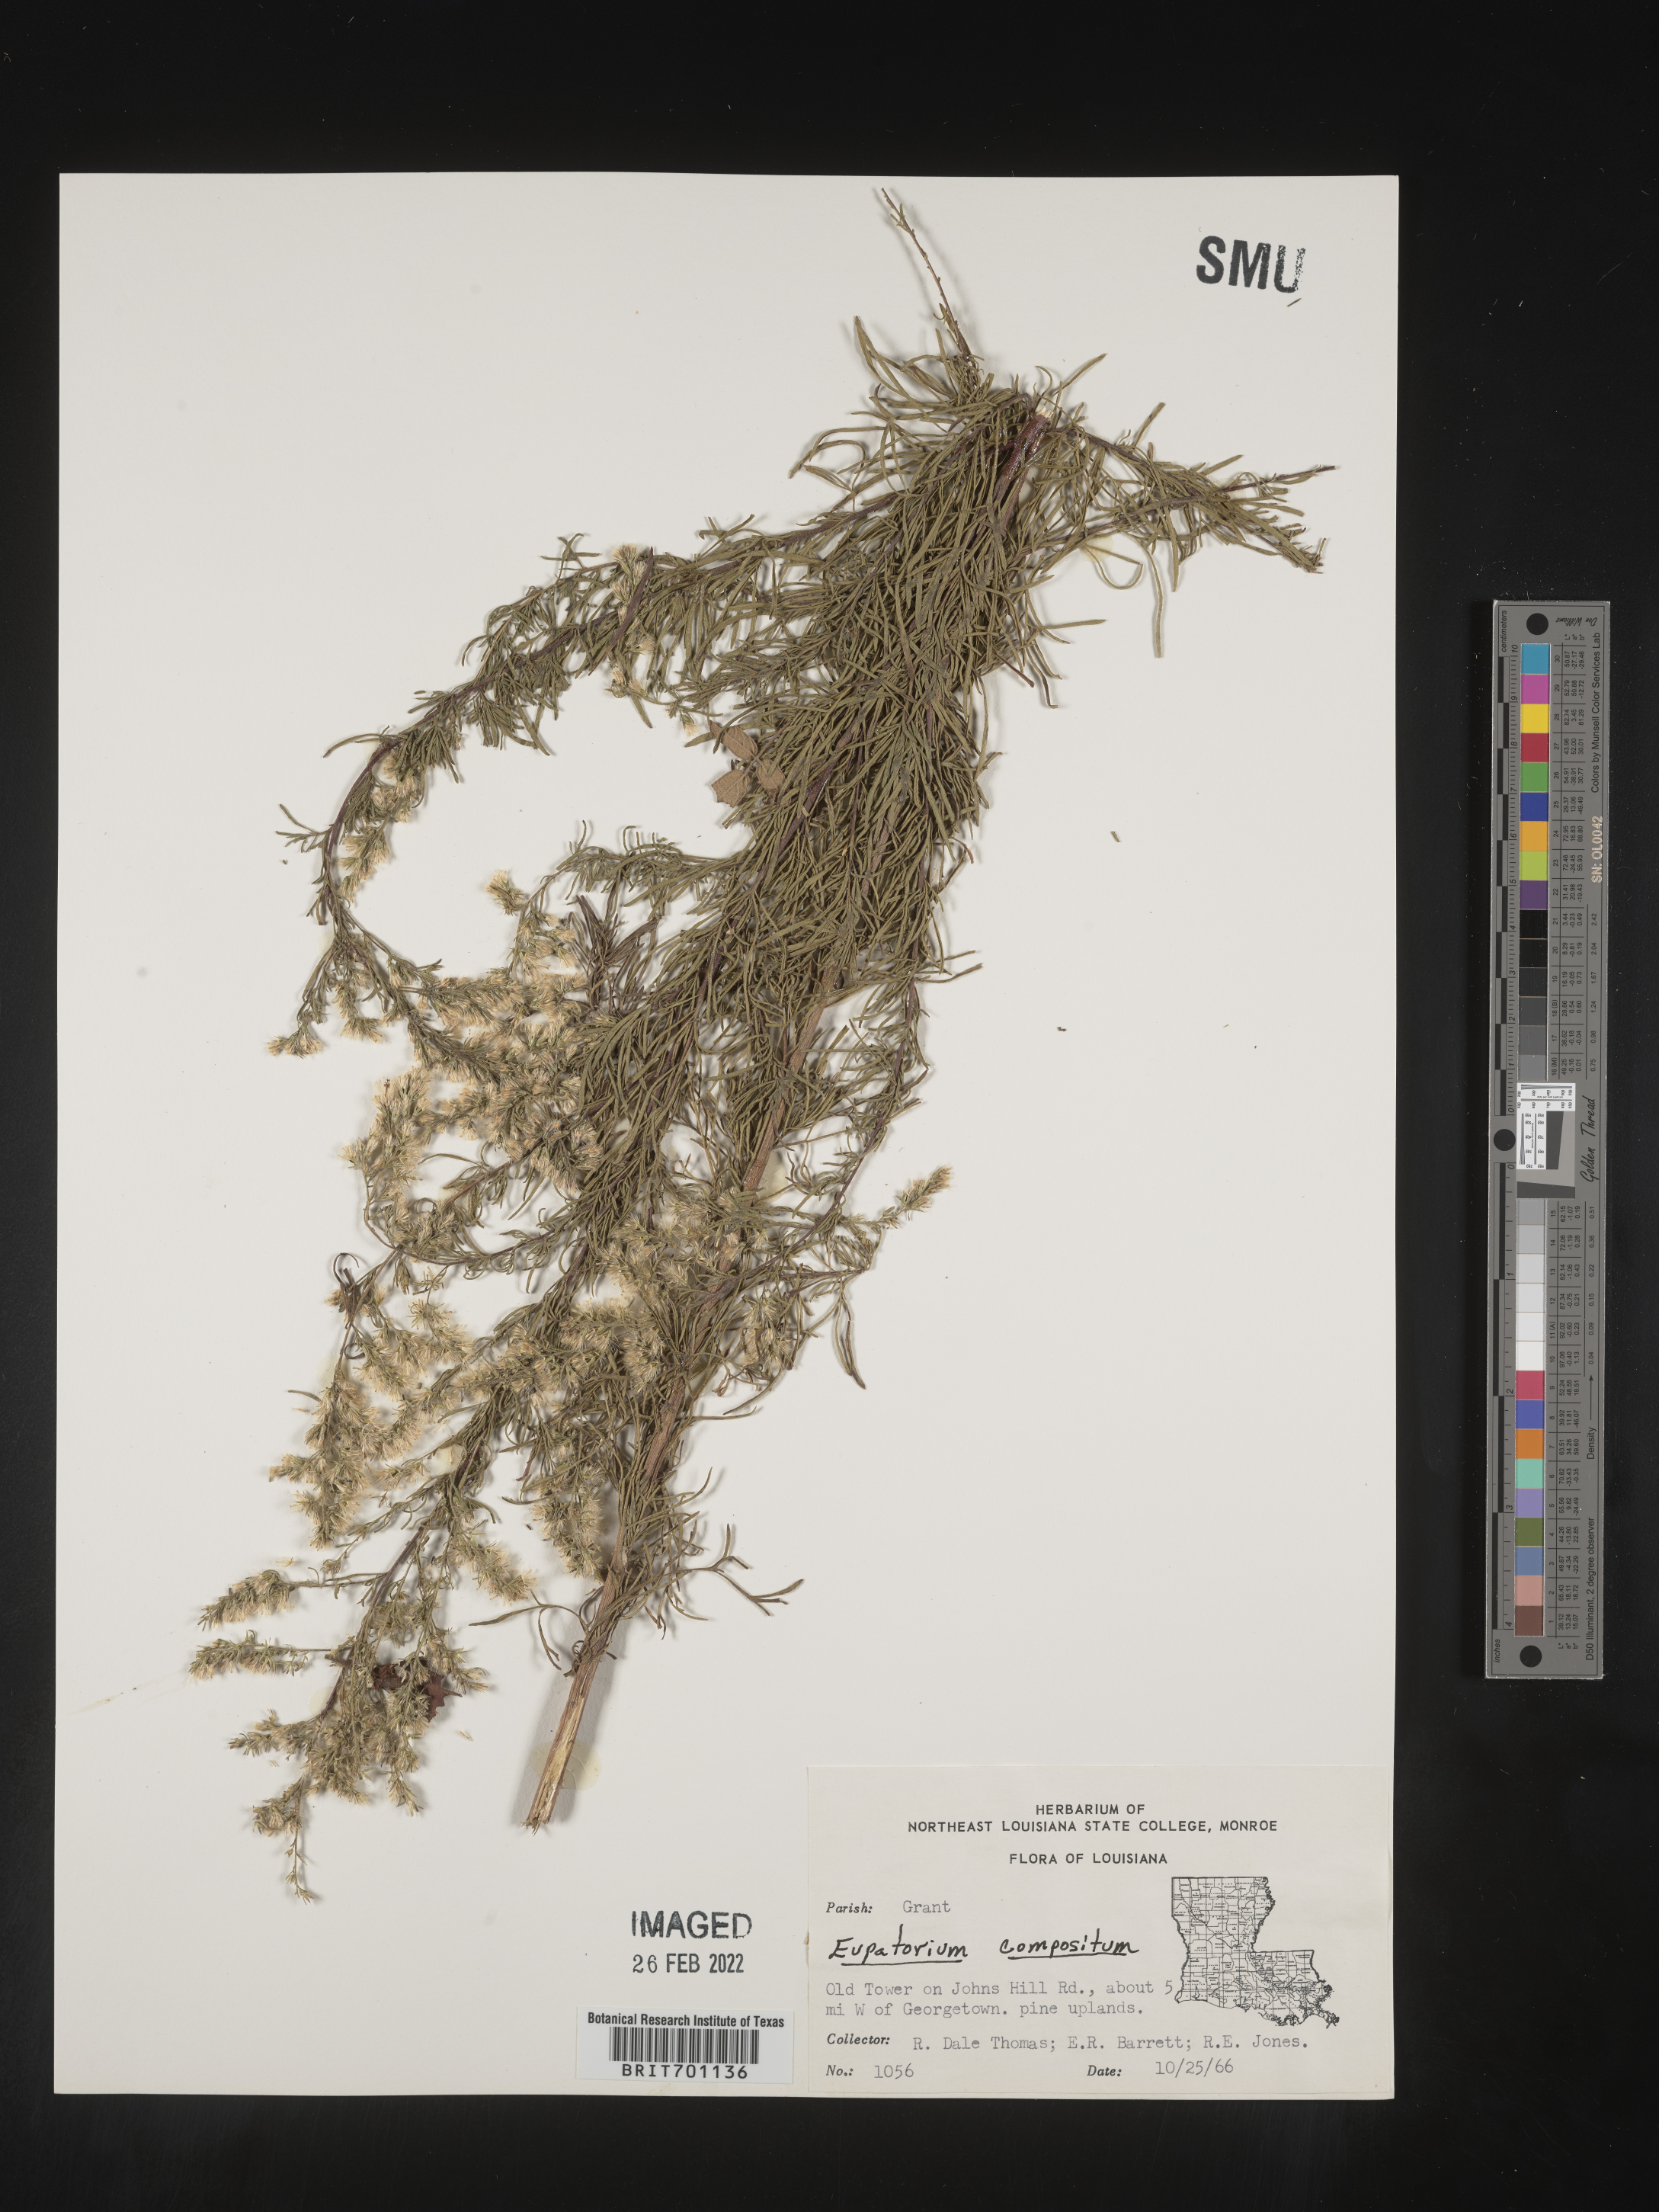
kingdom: Plantae
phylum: Tracheophyta
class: Magnoliopsida
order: Asterales
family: Asteraceae
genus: Eupatorium
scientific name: Eupatorium compositifolium
